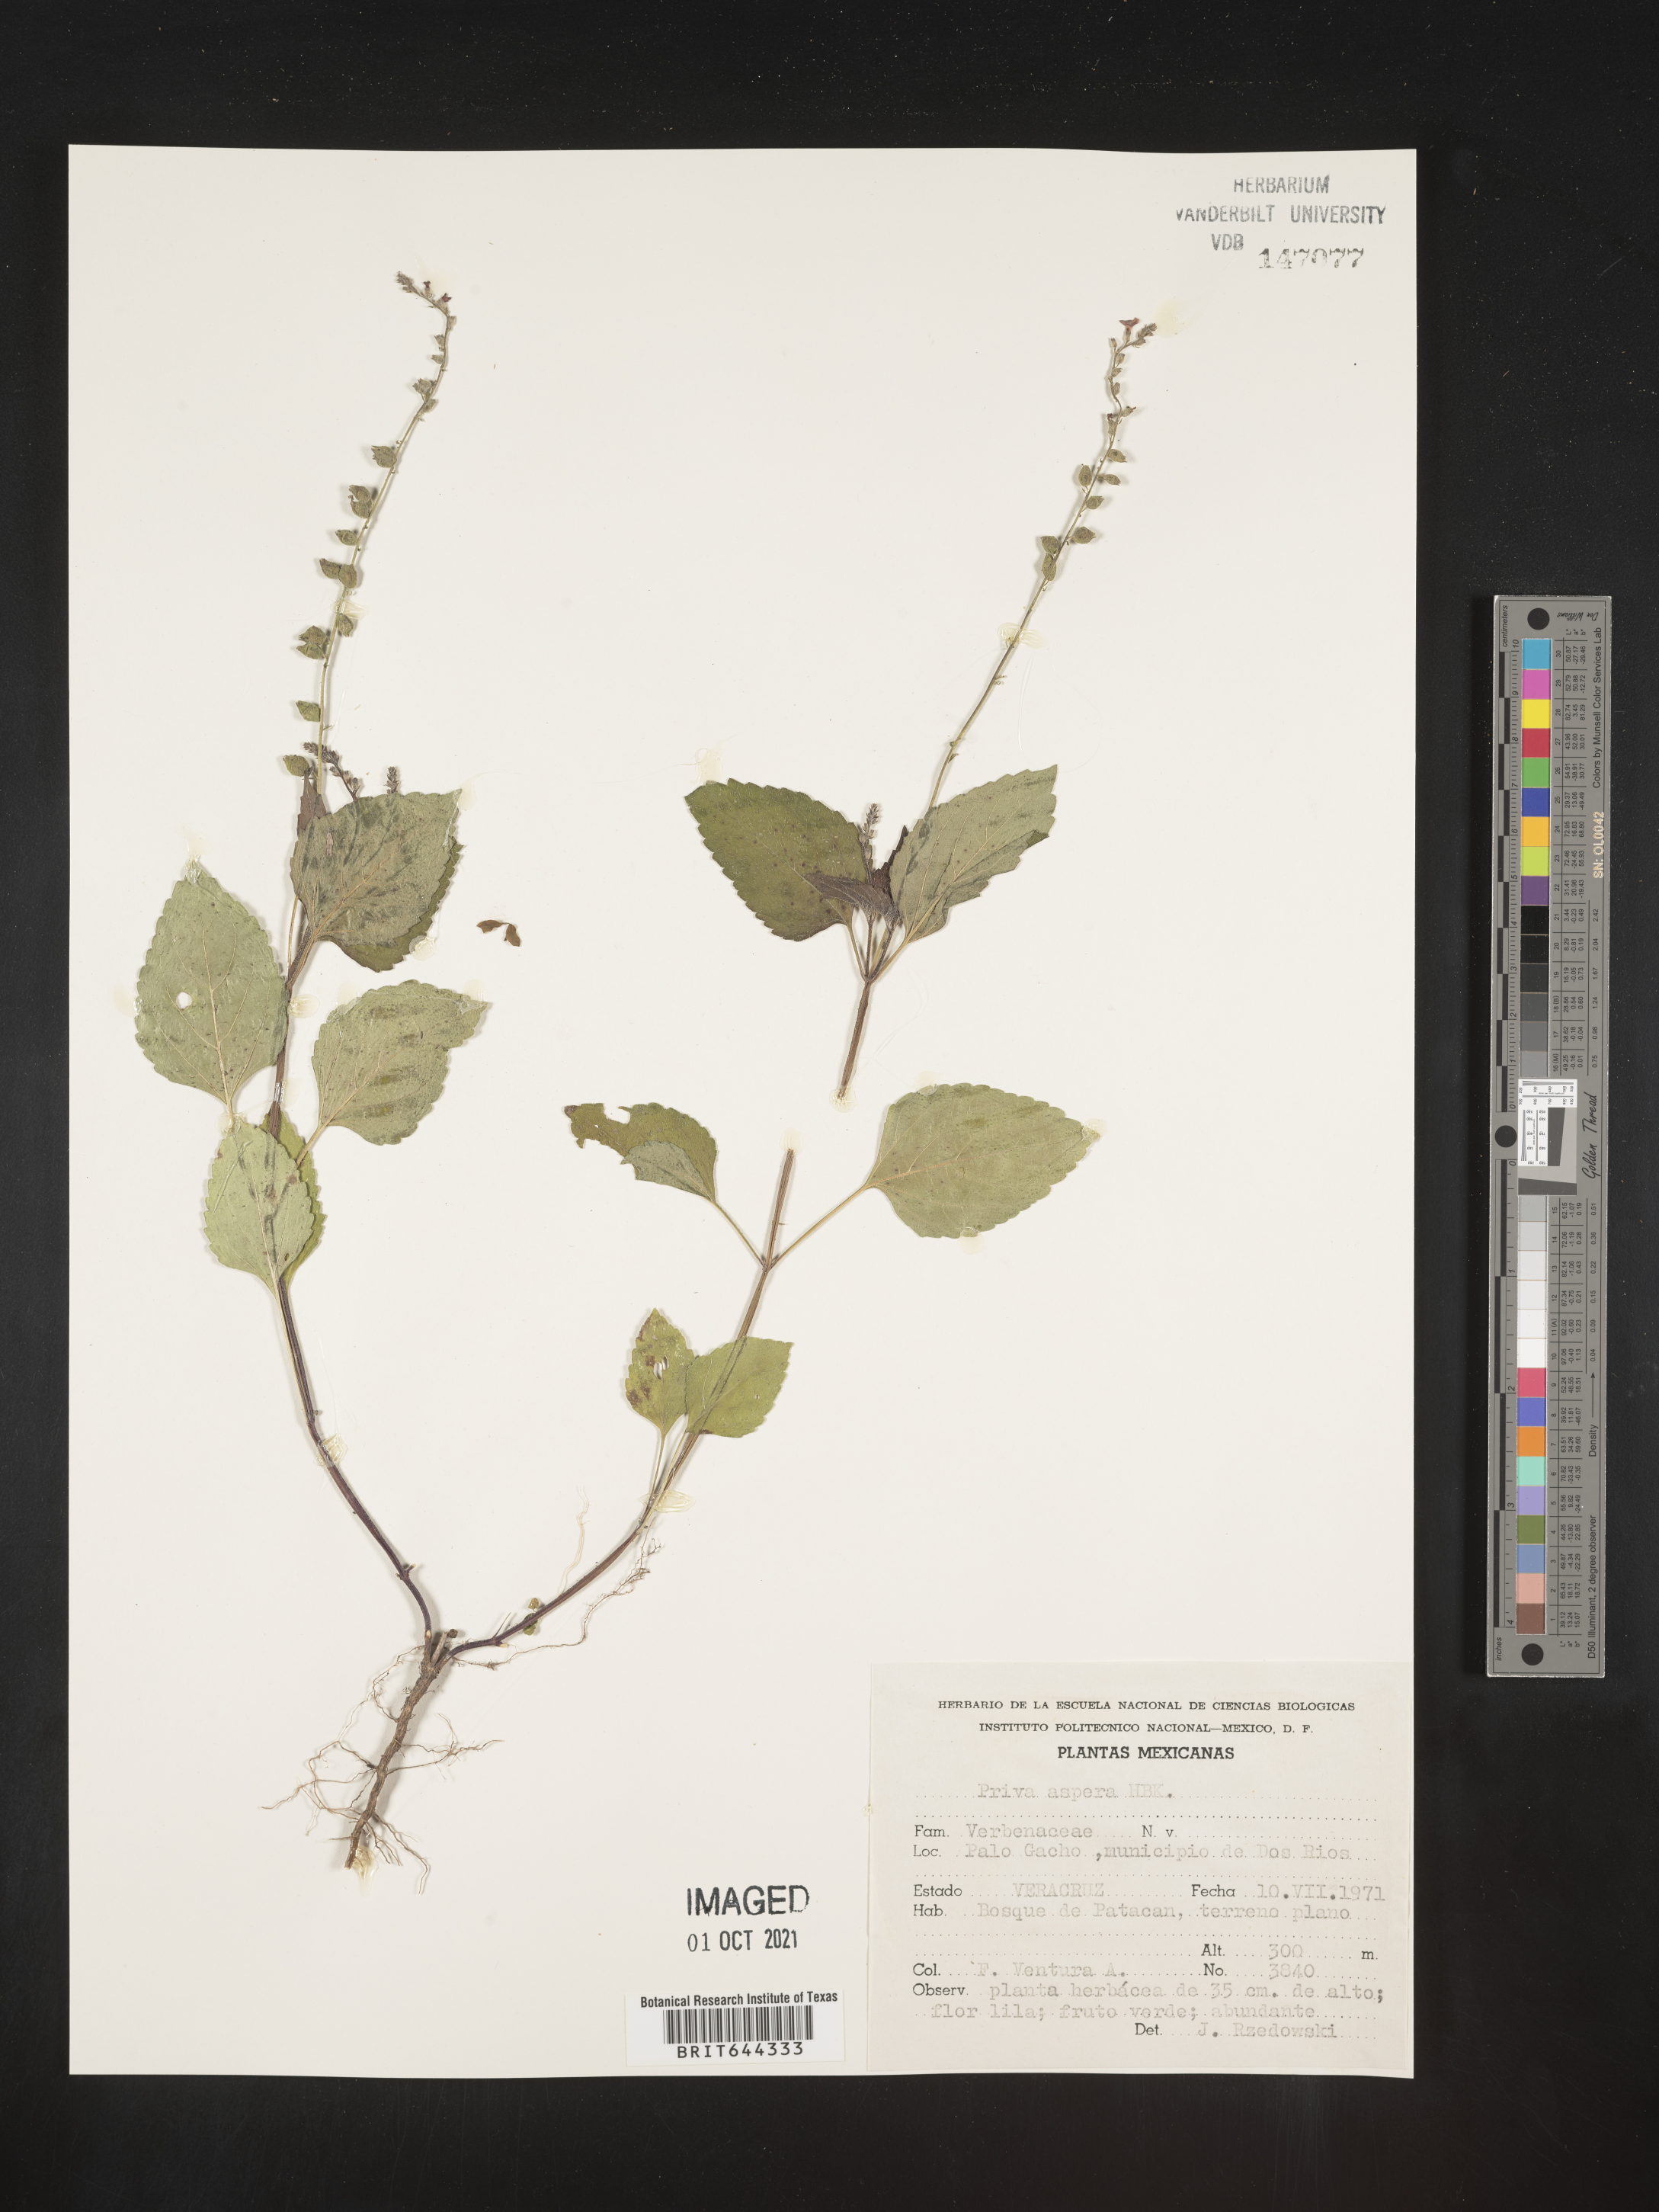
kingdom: Plantae
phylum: Tracheophyta
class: Magnoliopsida
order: Lamiales
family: Verbenaceae
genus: Priva
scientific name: Priva
